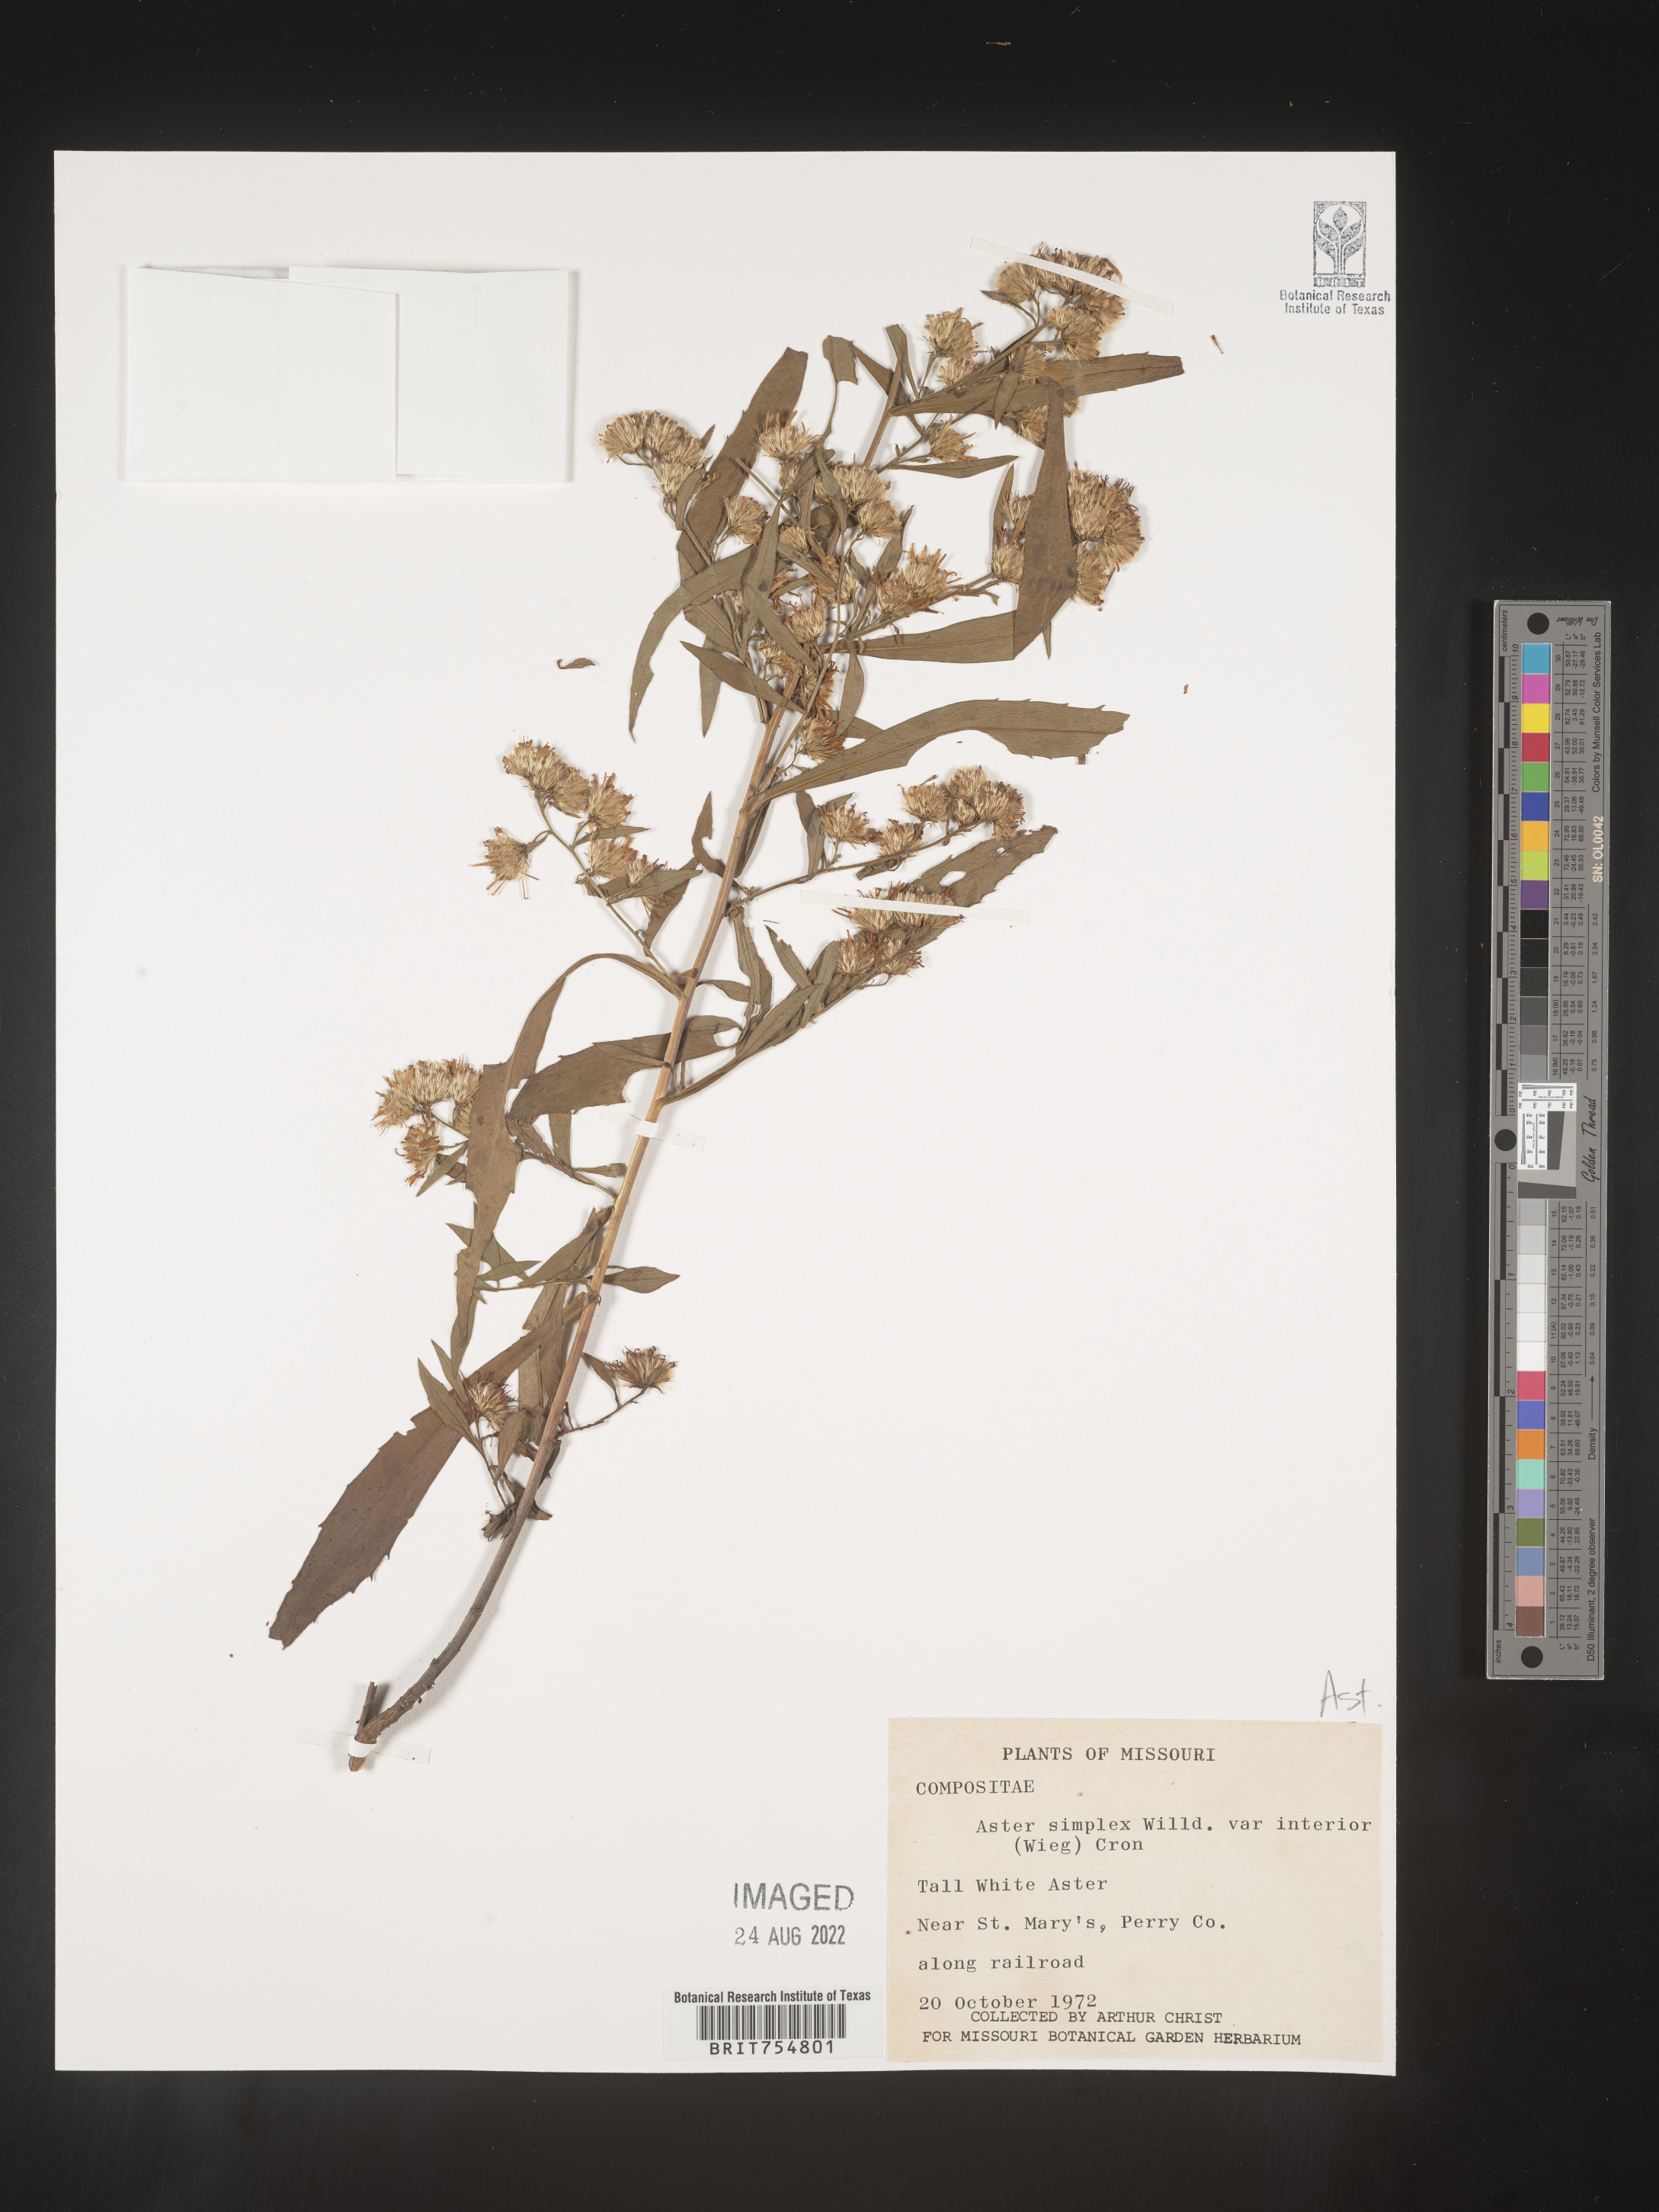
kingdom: Plantae
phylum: Tracheophyta
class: Magnoliopsida
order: Asterales
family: Asteraceae
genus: Symphyotrichum
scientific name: Symphyotrichum
